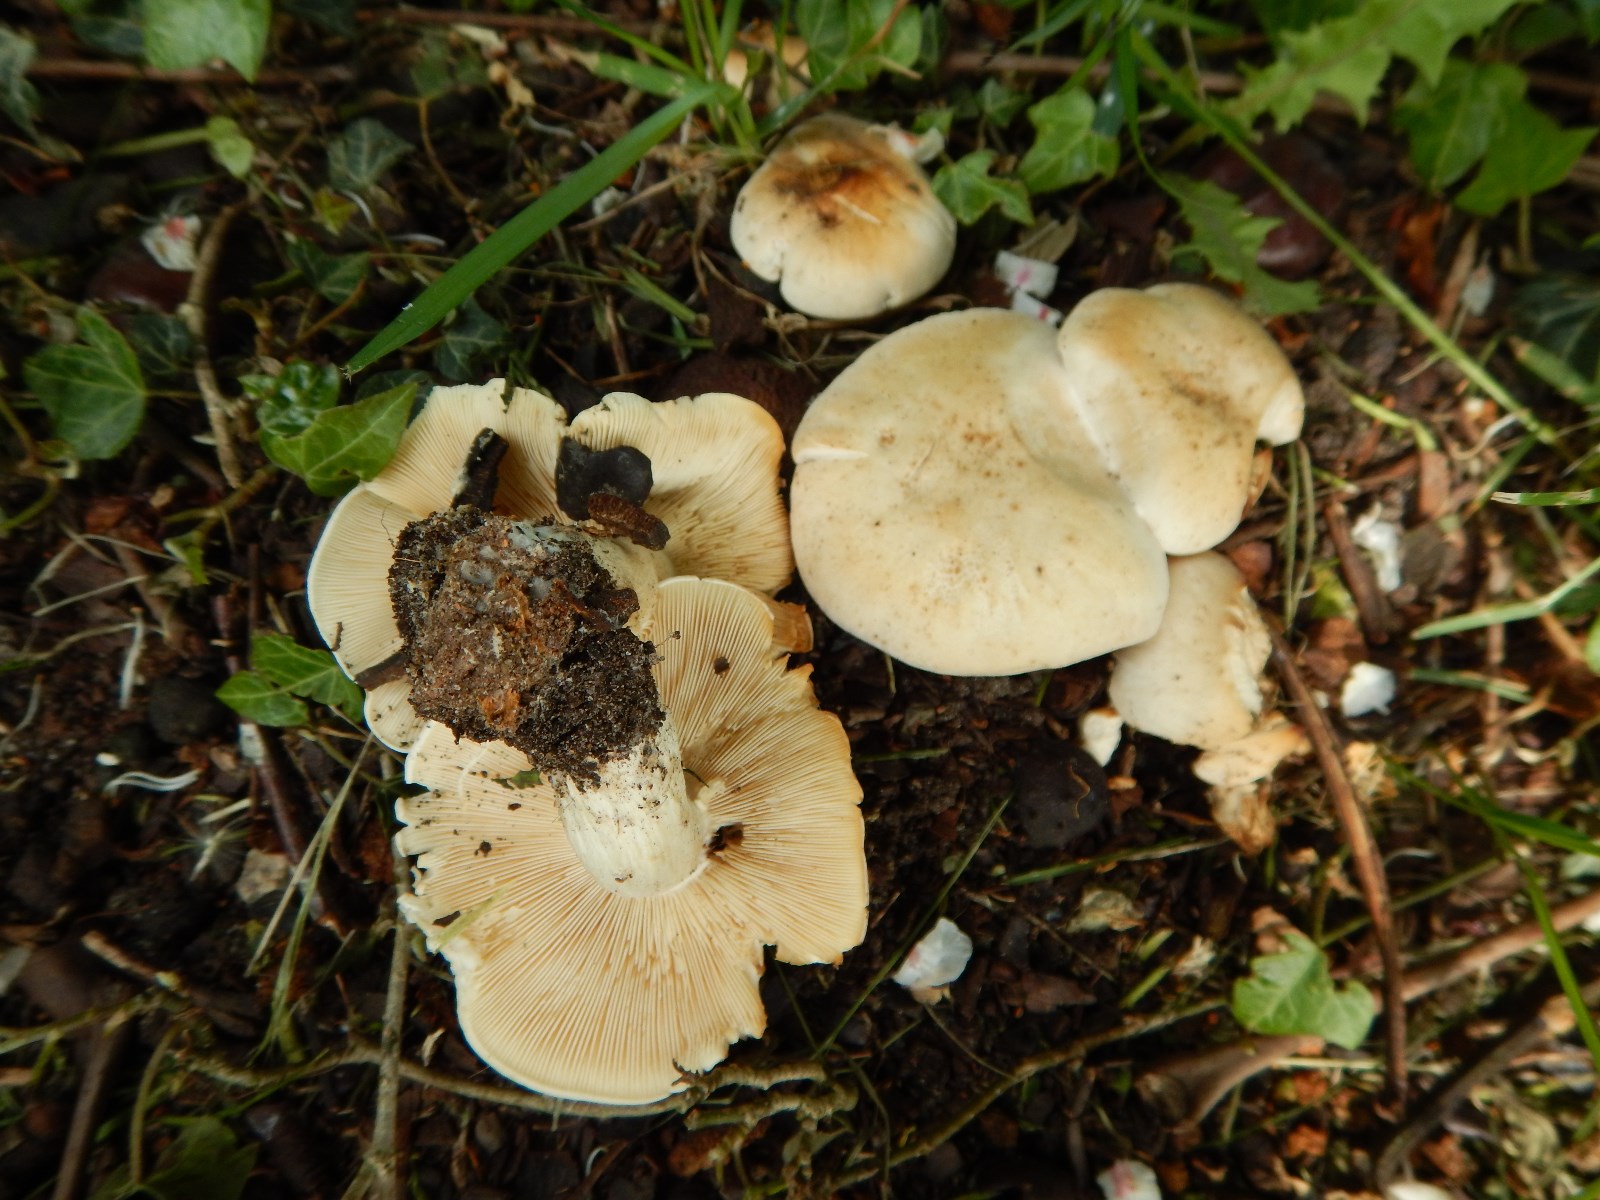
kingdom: Fungi
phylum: Basidiomycota
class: Agaricomycetes
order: Agaricales
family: Lyophyllaceae
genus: Calocybe
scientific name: Calocybe gambosa
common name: vårmusseron
